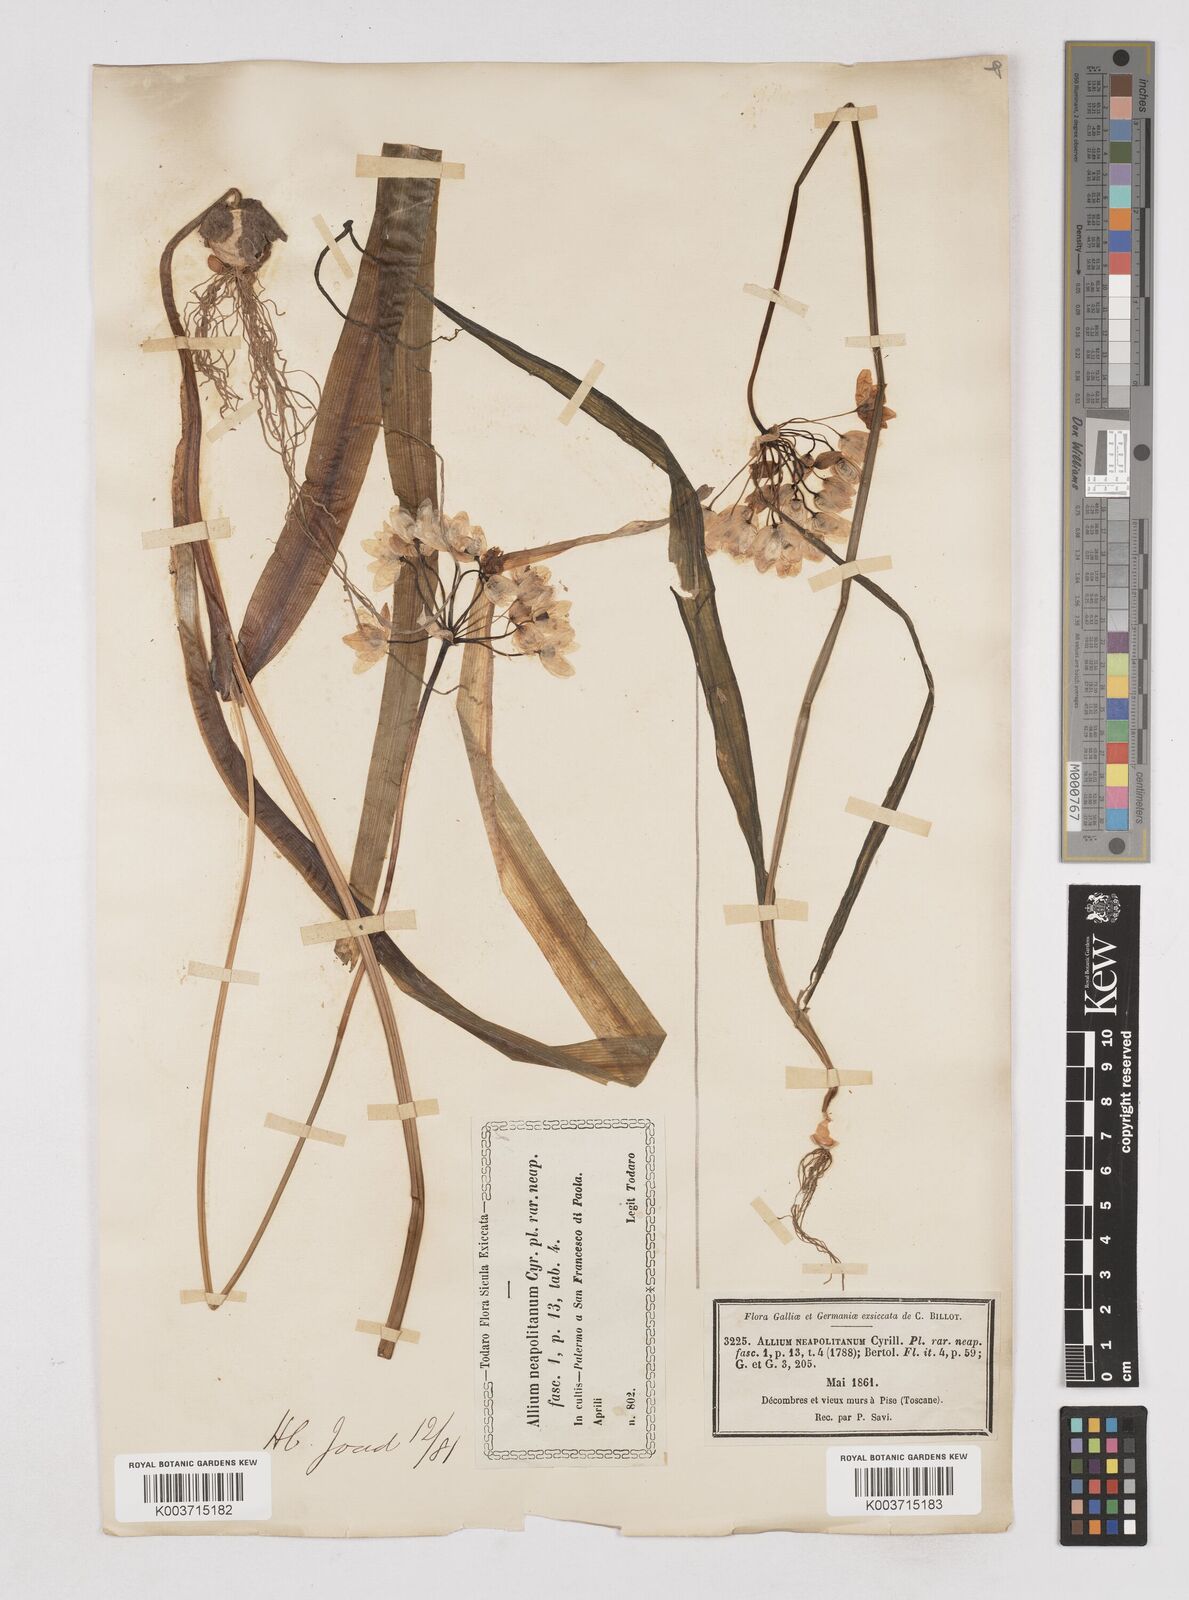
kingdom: Plantae
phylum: Tracheophyta
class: Liliopsida
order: Asparagales
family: Amaryllidaceae
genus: Allium
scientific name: Allium neapolitanum
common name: Neapolitan garlic
